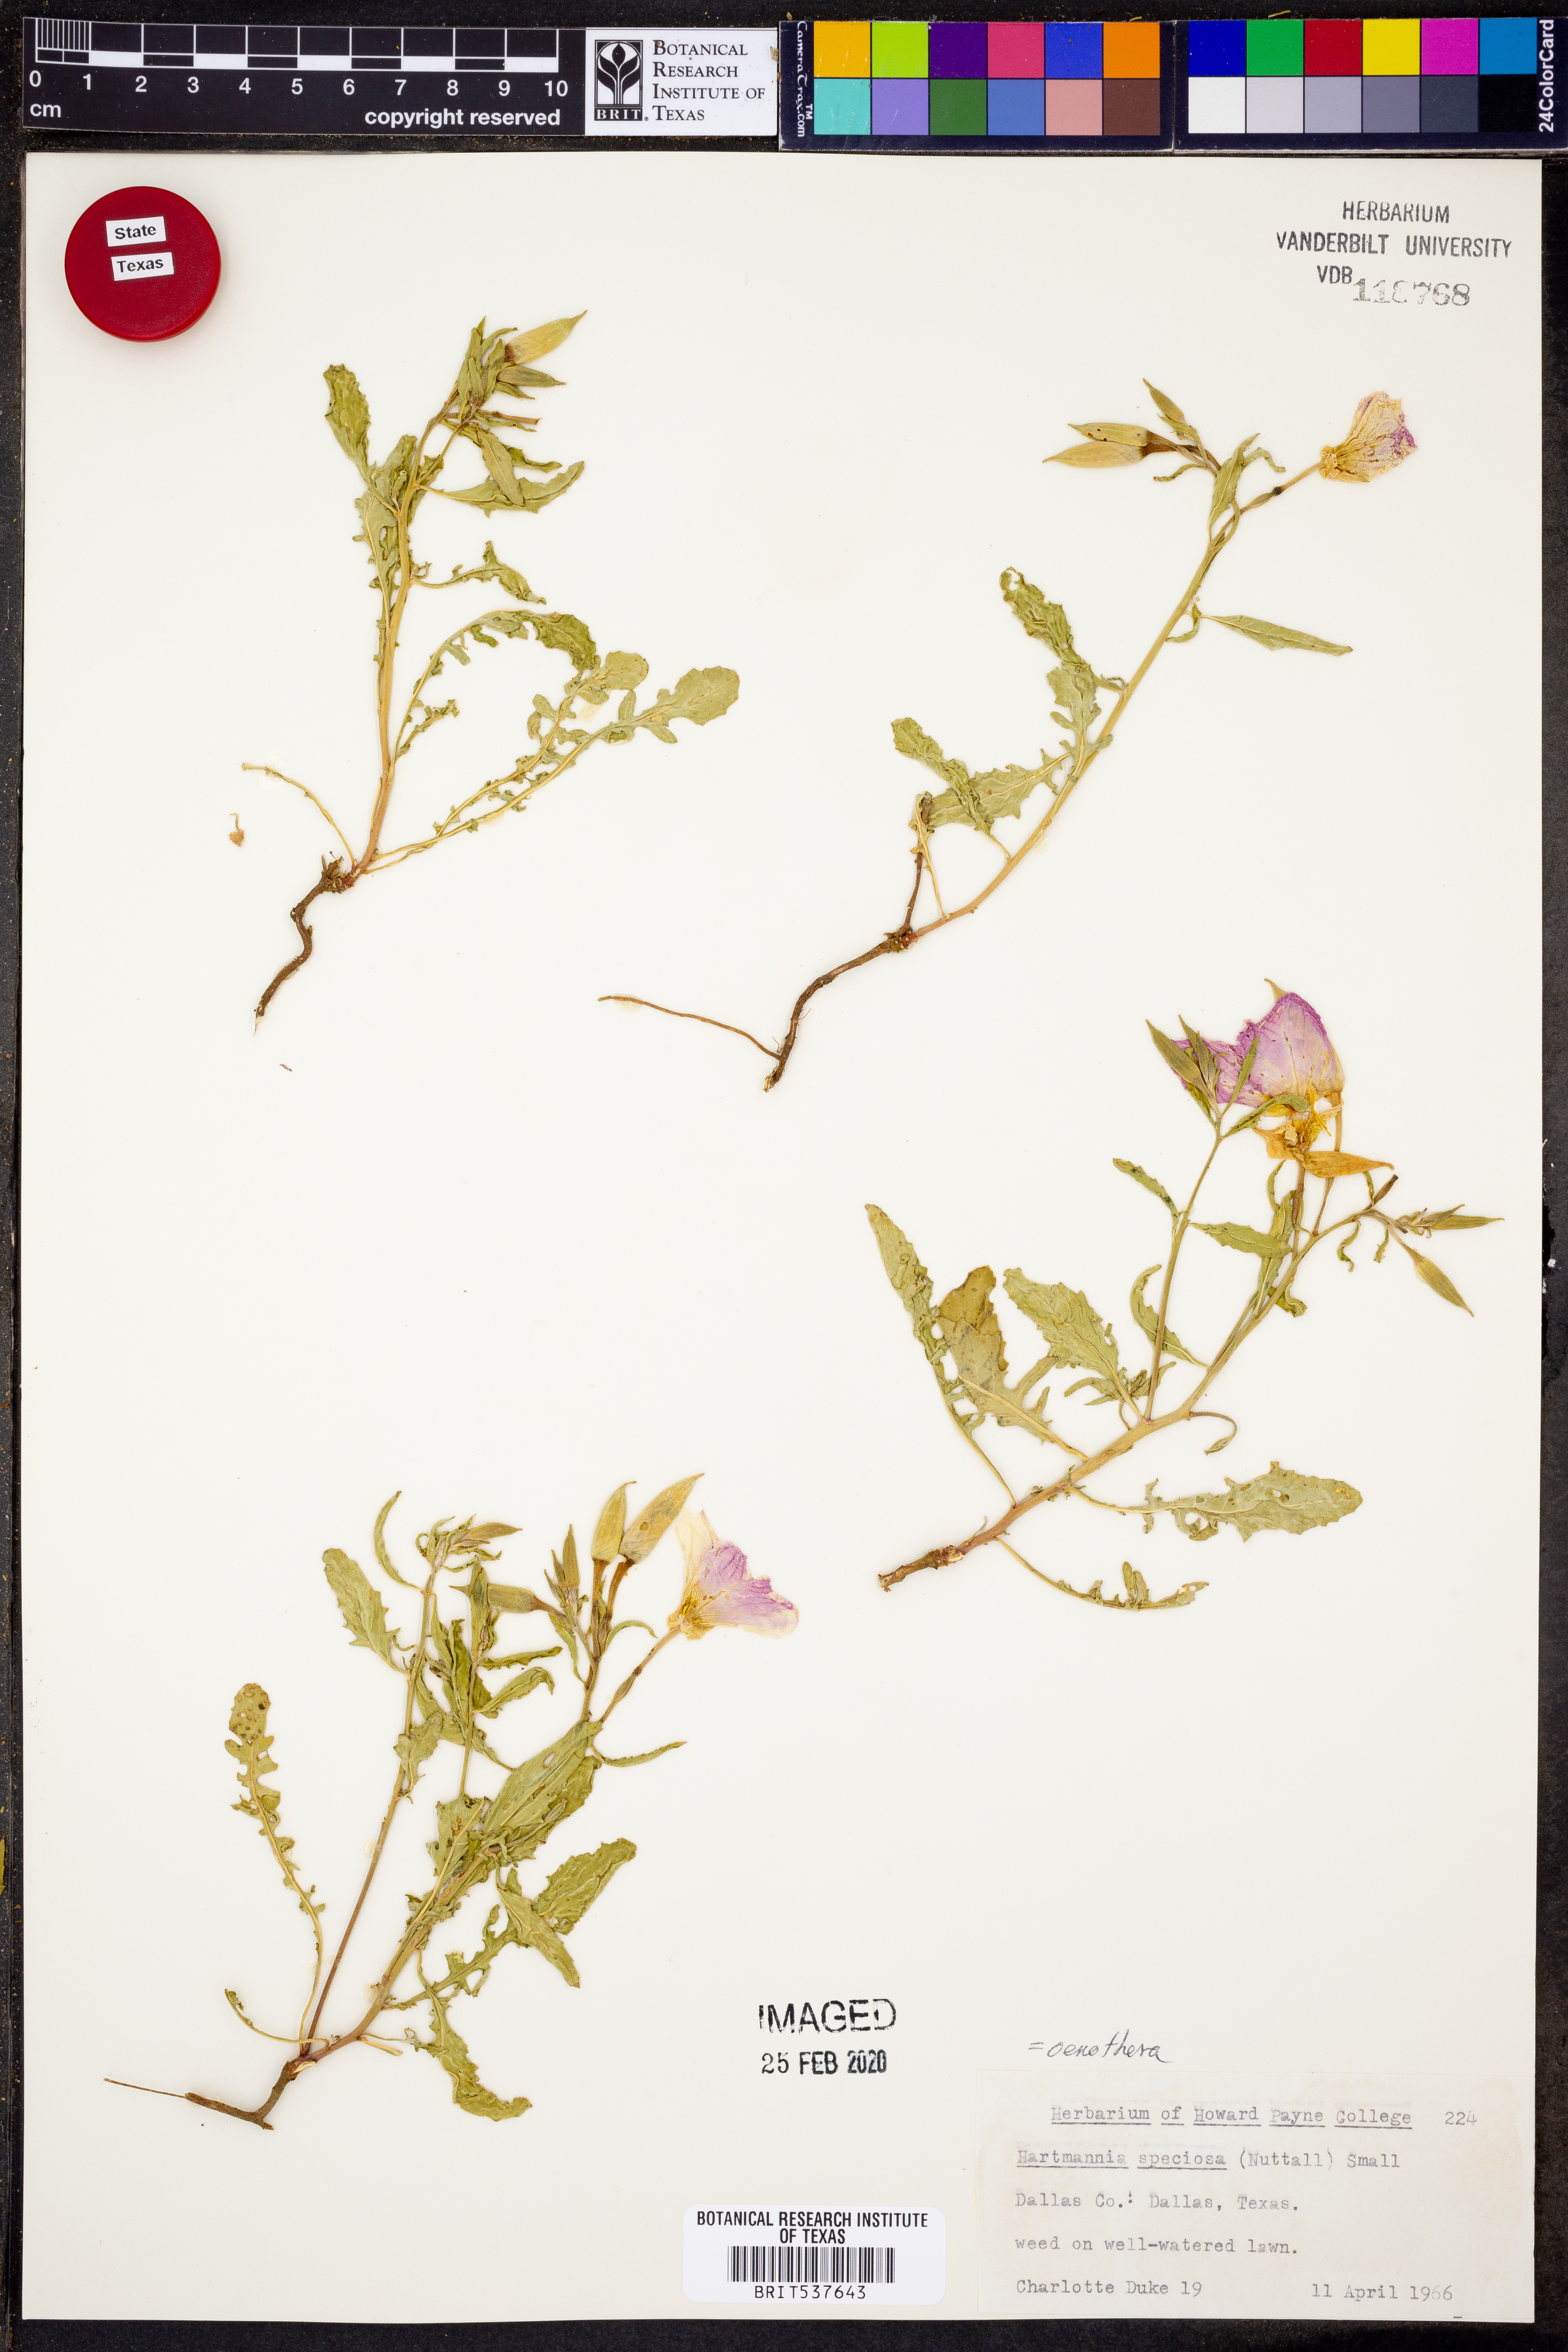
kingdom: Plantae
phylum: Tracheophyta
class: Magnoliopsida
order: Myrtales
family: Onagraceae
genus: Oenothera
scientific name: Oenothera speciosa
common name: White evening-primrose
